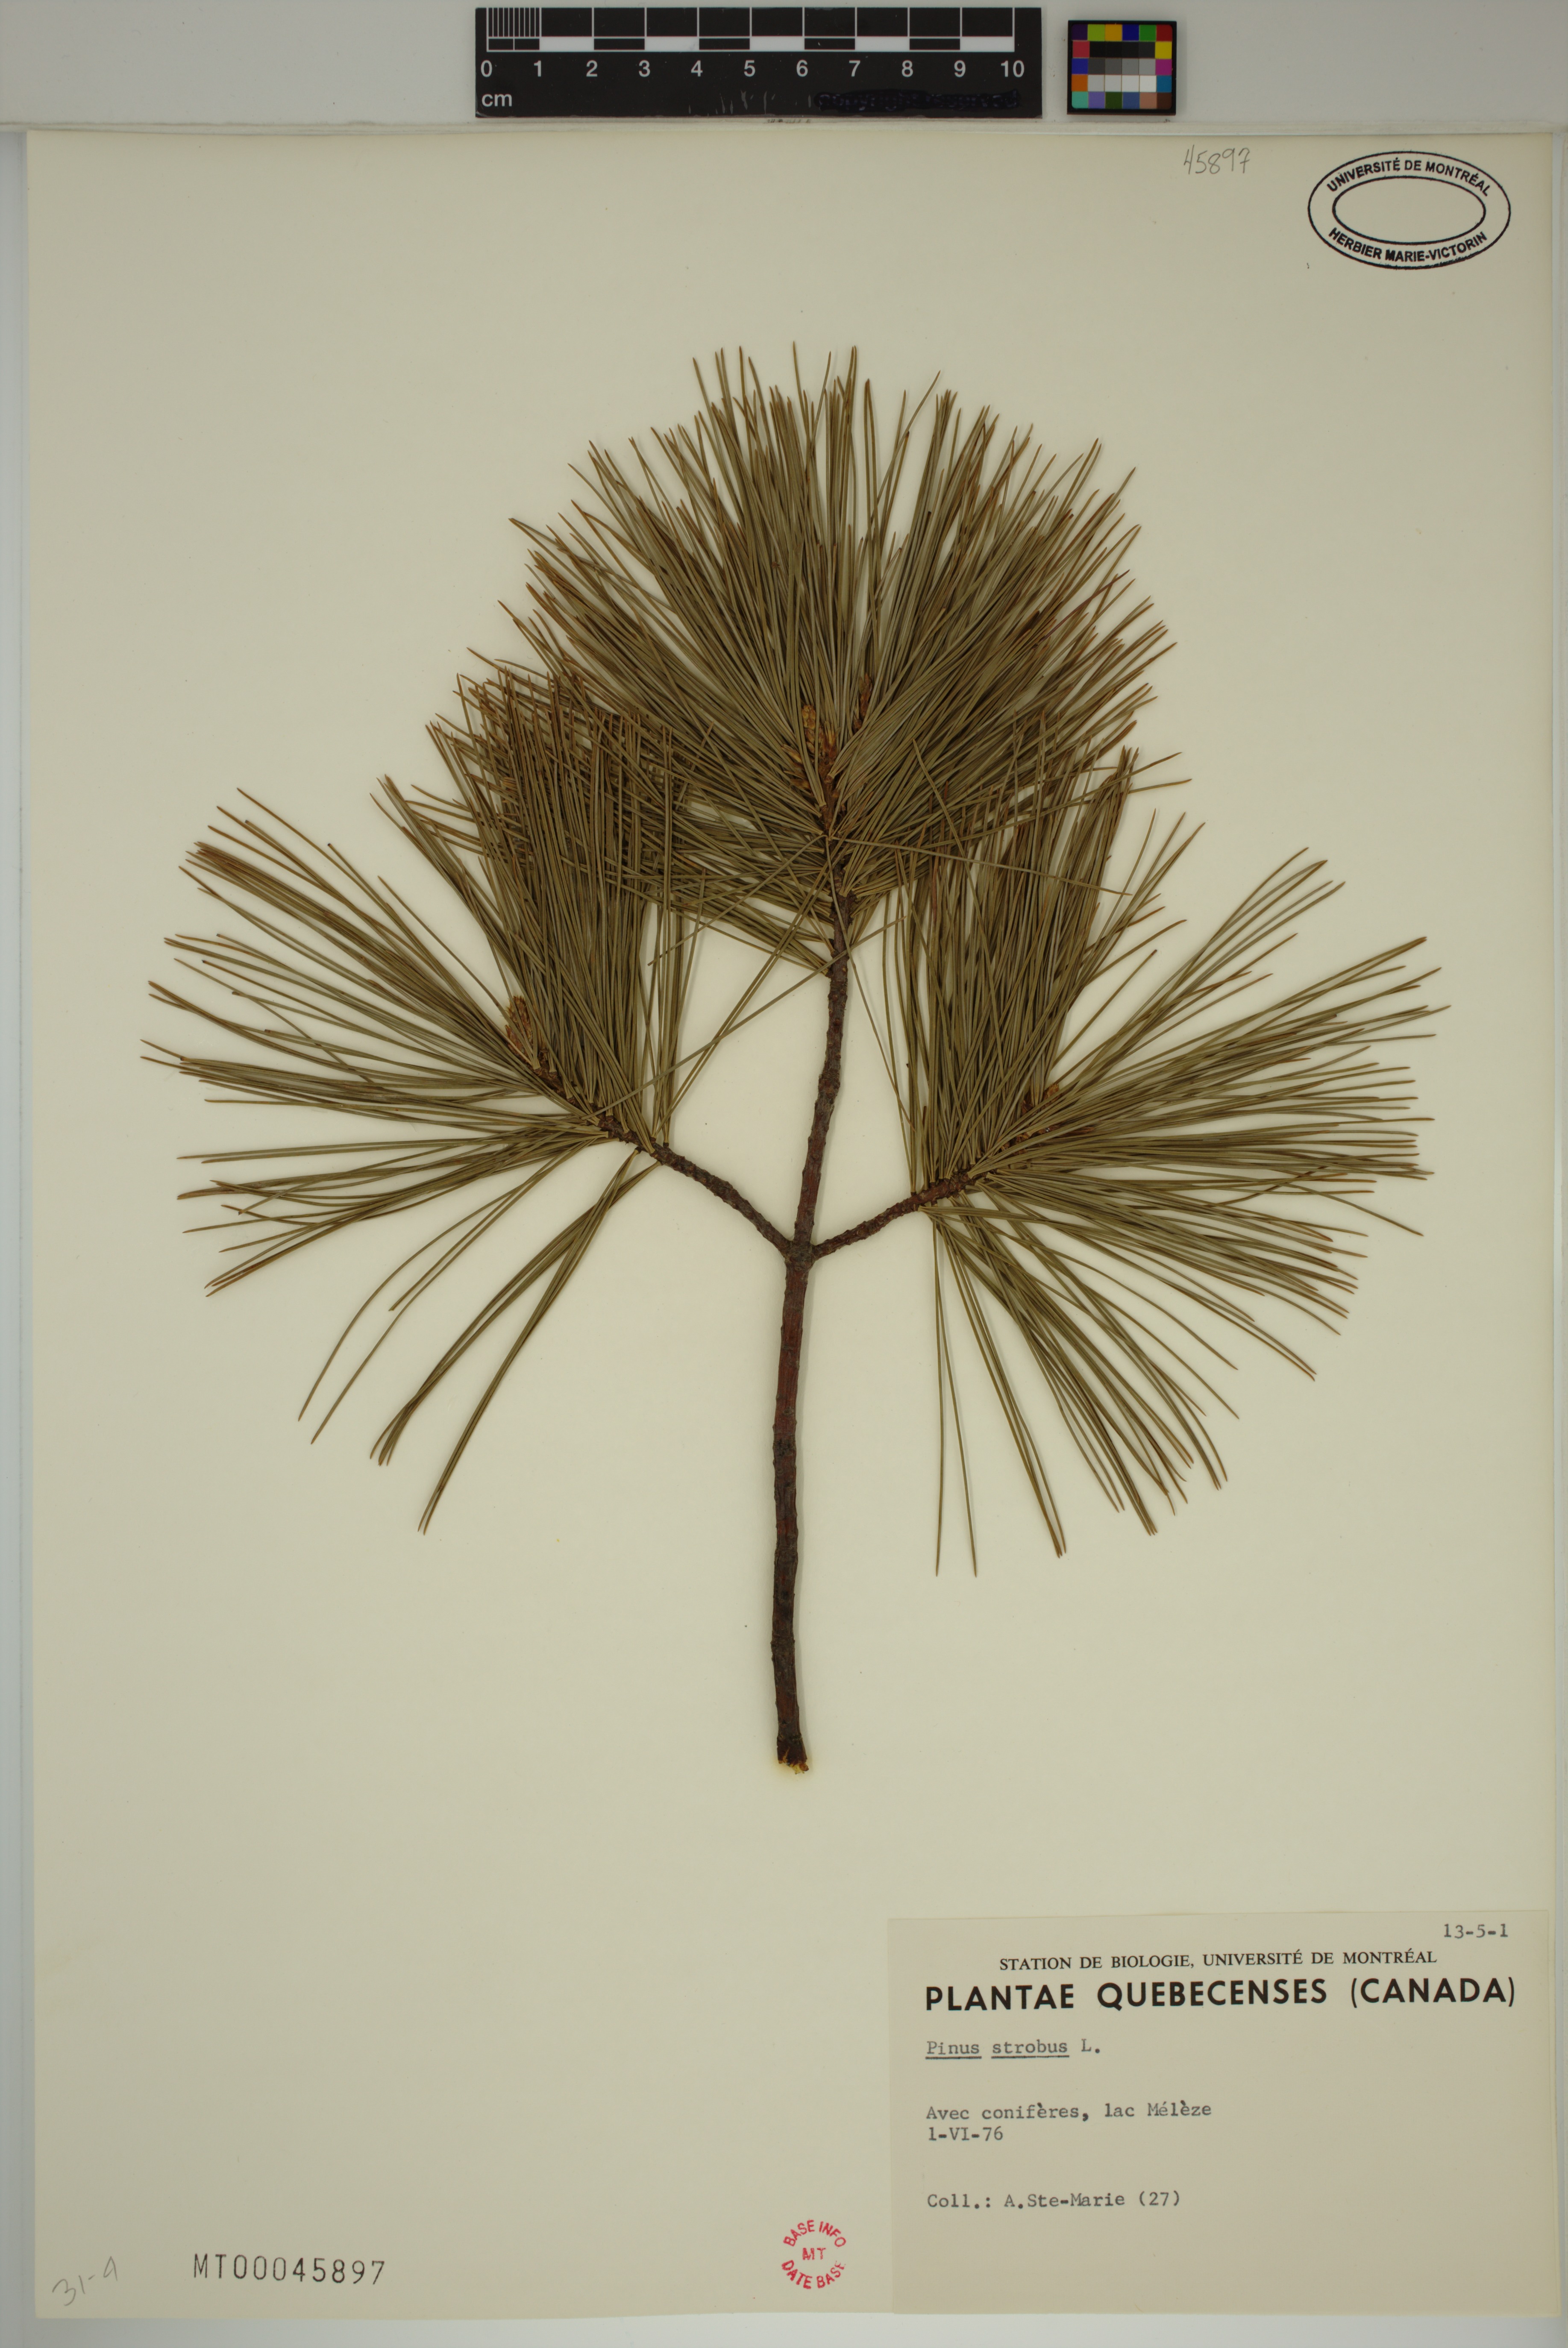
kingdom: Plantae
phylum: Tracheophyta
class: Pinopsida
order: Pinales
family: Pinaceae
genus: Pinus
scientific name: Pinus strobus
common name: Weymouth pine
